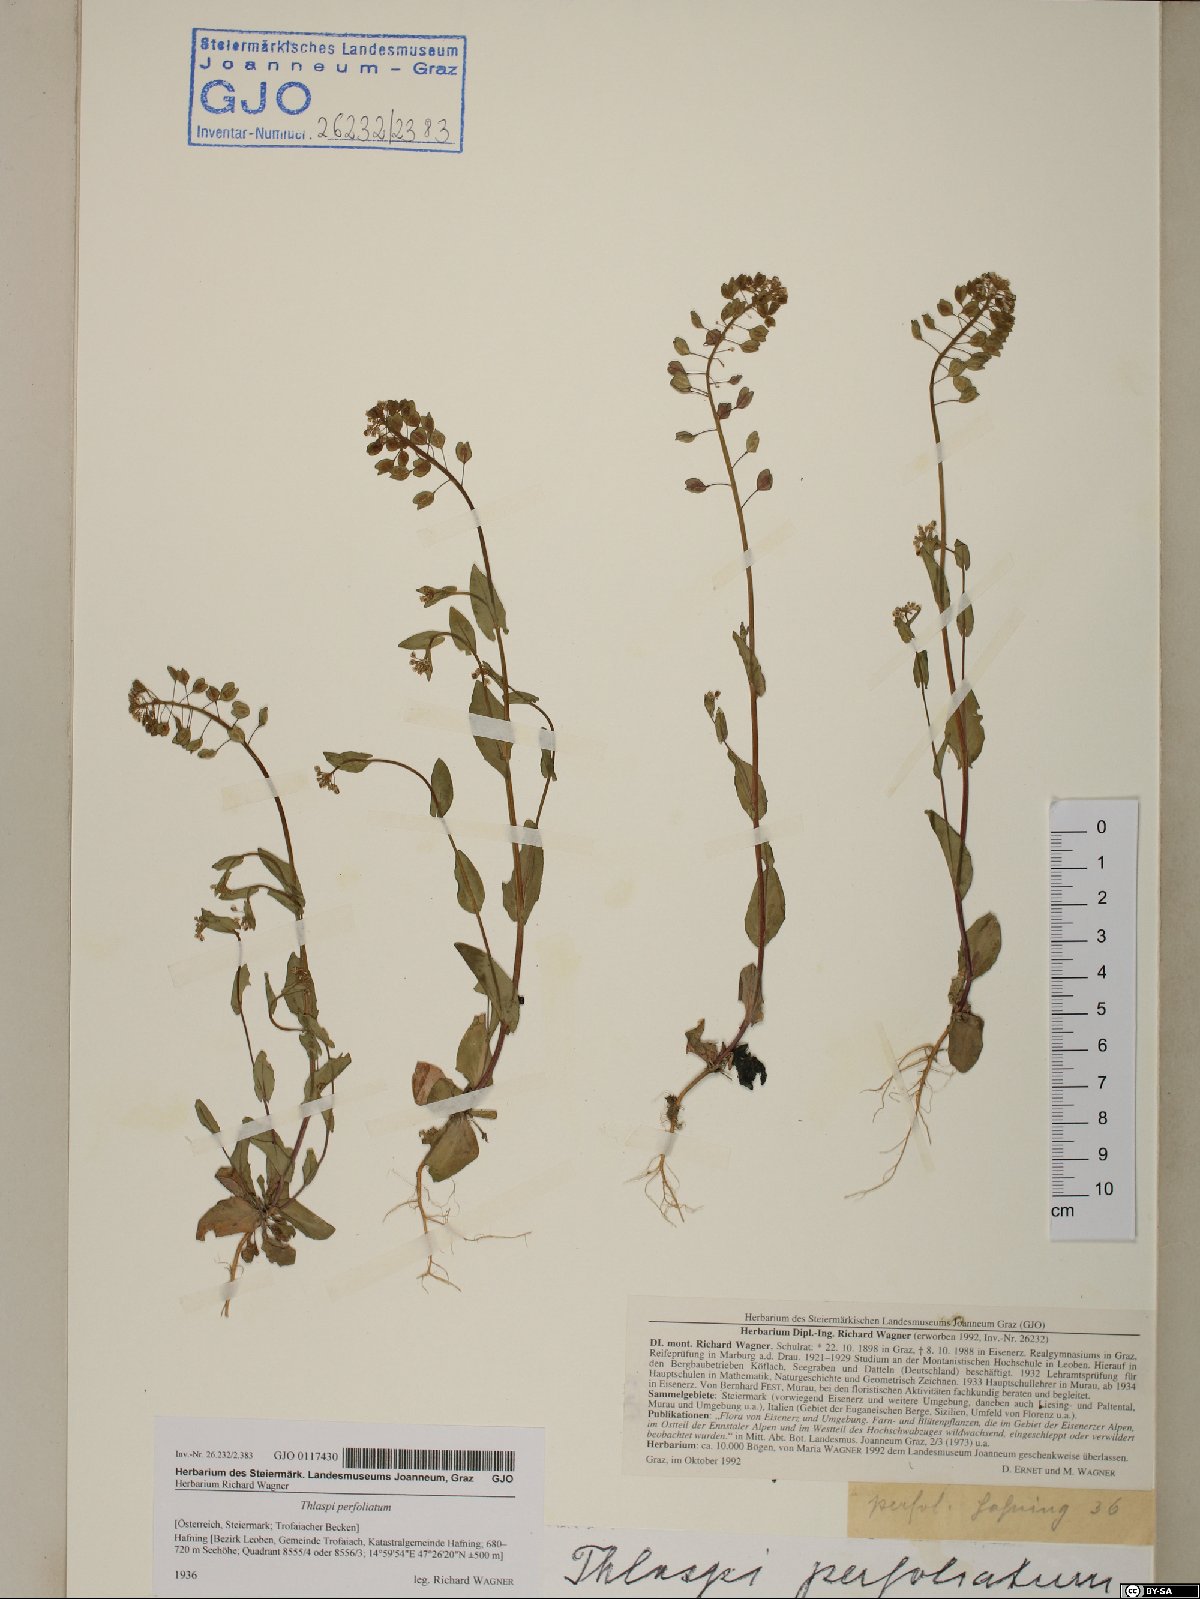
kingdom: Plantae
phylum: Tracheophyta
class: Magnoliopsida
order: Brassicales
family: Brassicaceae
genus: Noccaea
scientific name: Noccaea perfoliata
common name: Perfoliate pennycress
